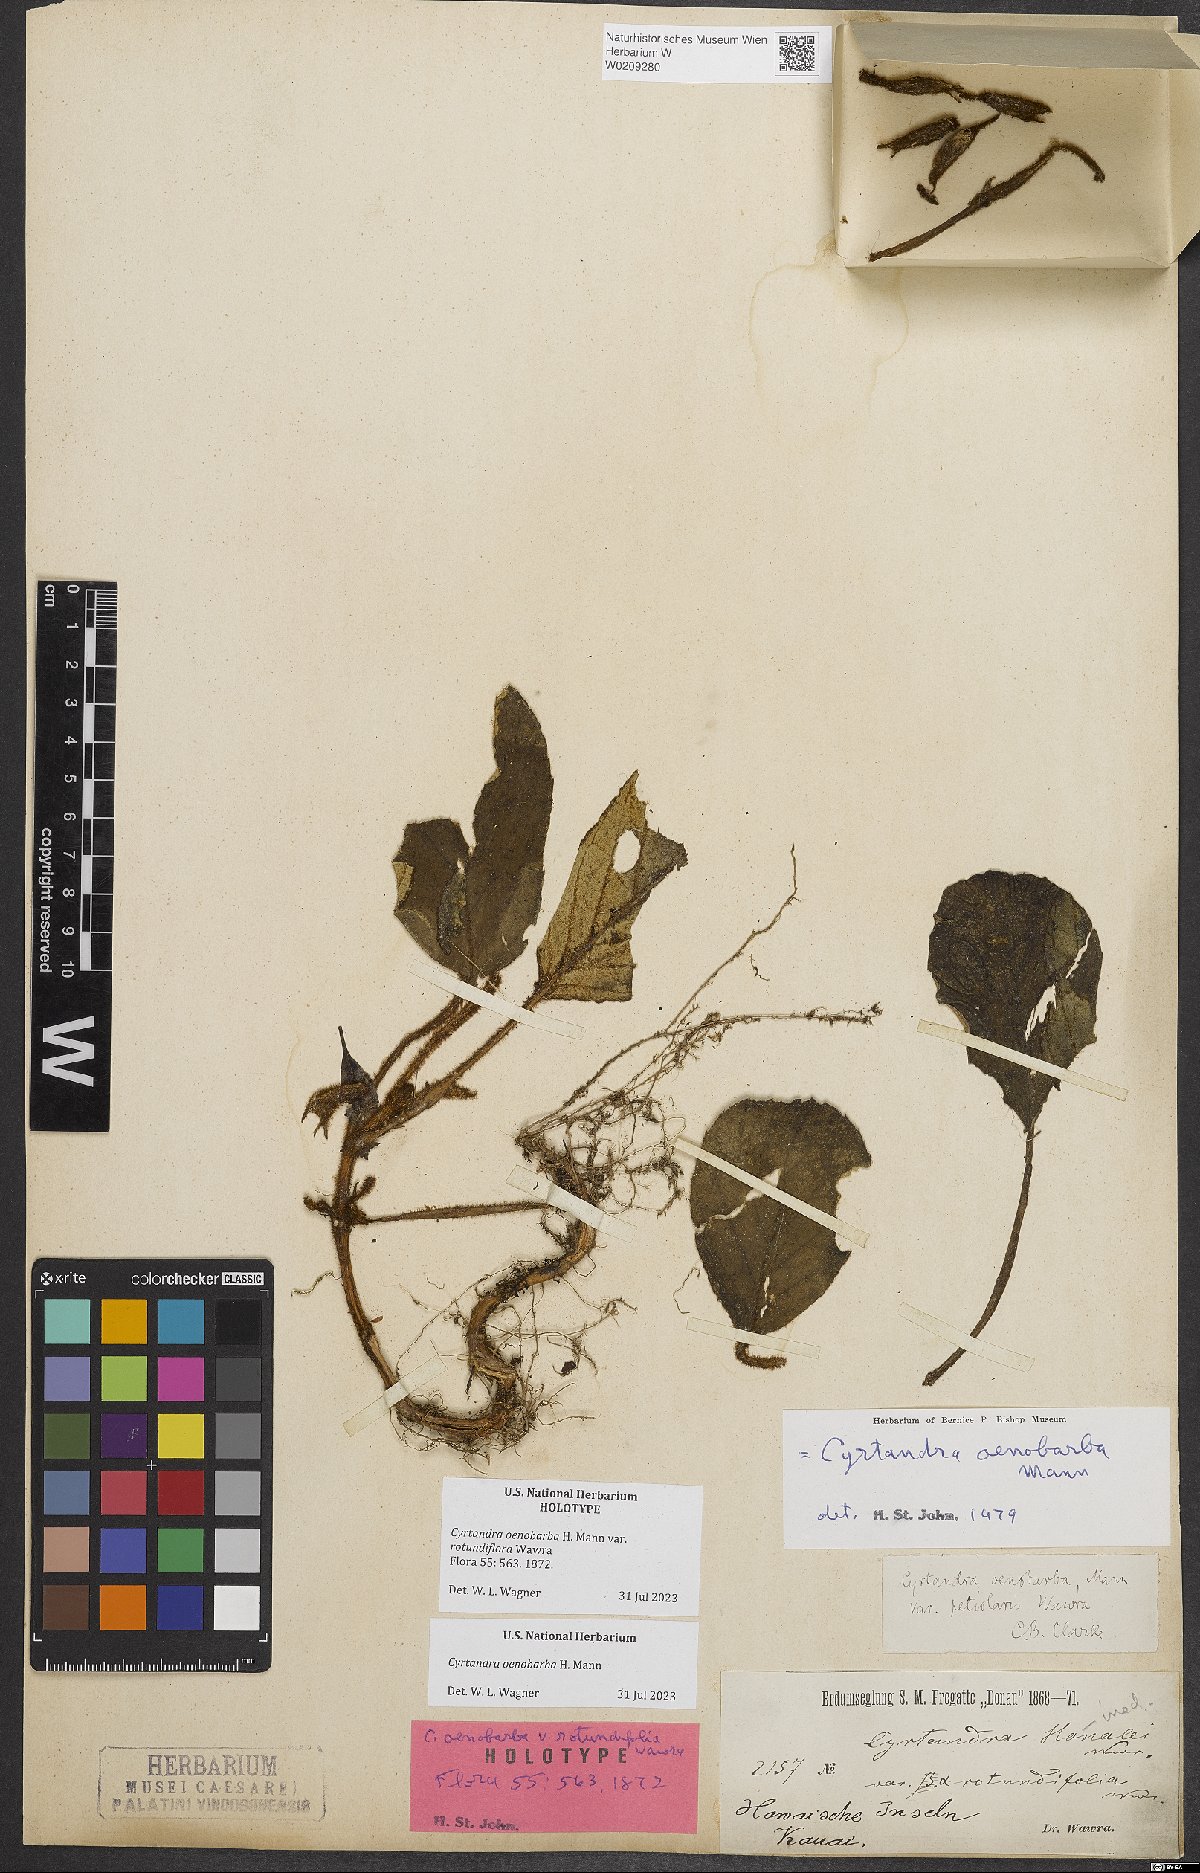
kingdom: Plantae
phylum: Tracheophyta
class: Magnoliopsida
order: Lamiales
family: Gesneriaceae
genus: Cyrtandra
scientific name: Cyrtandra oenobarba
